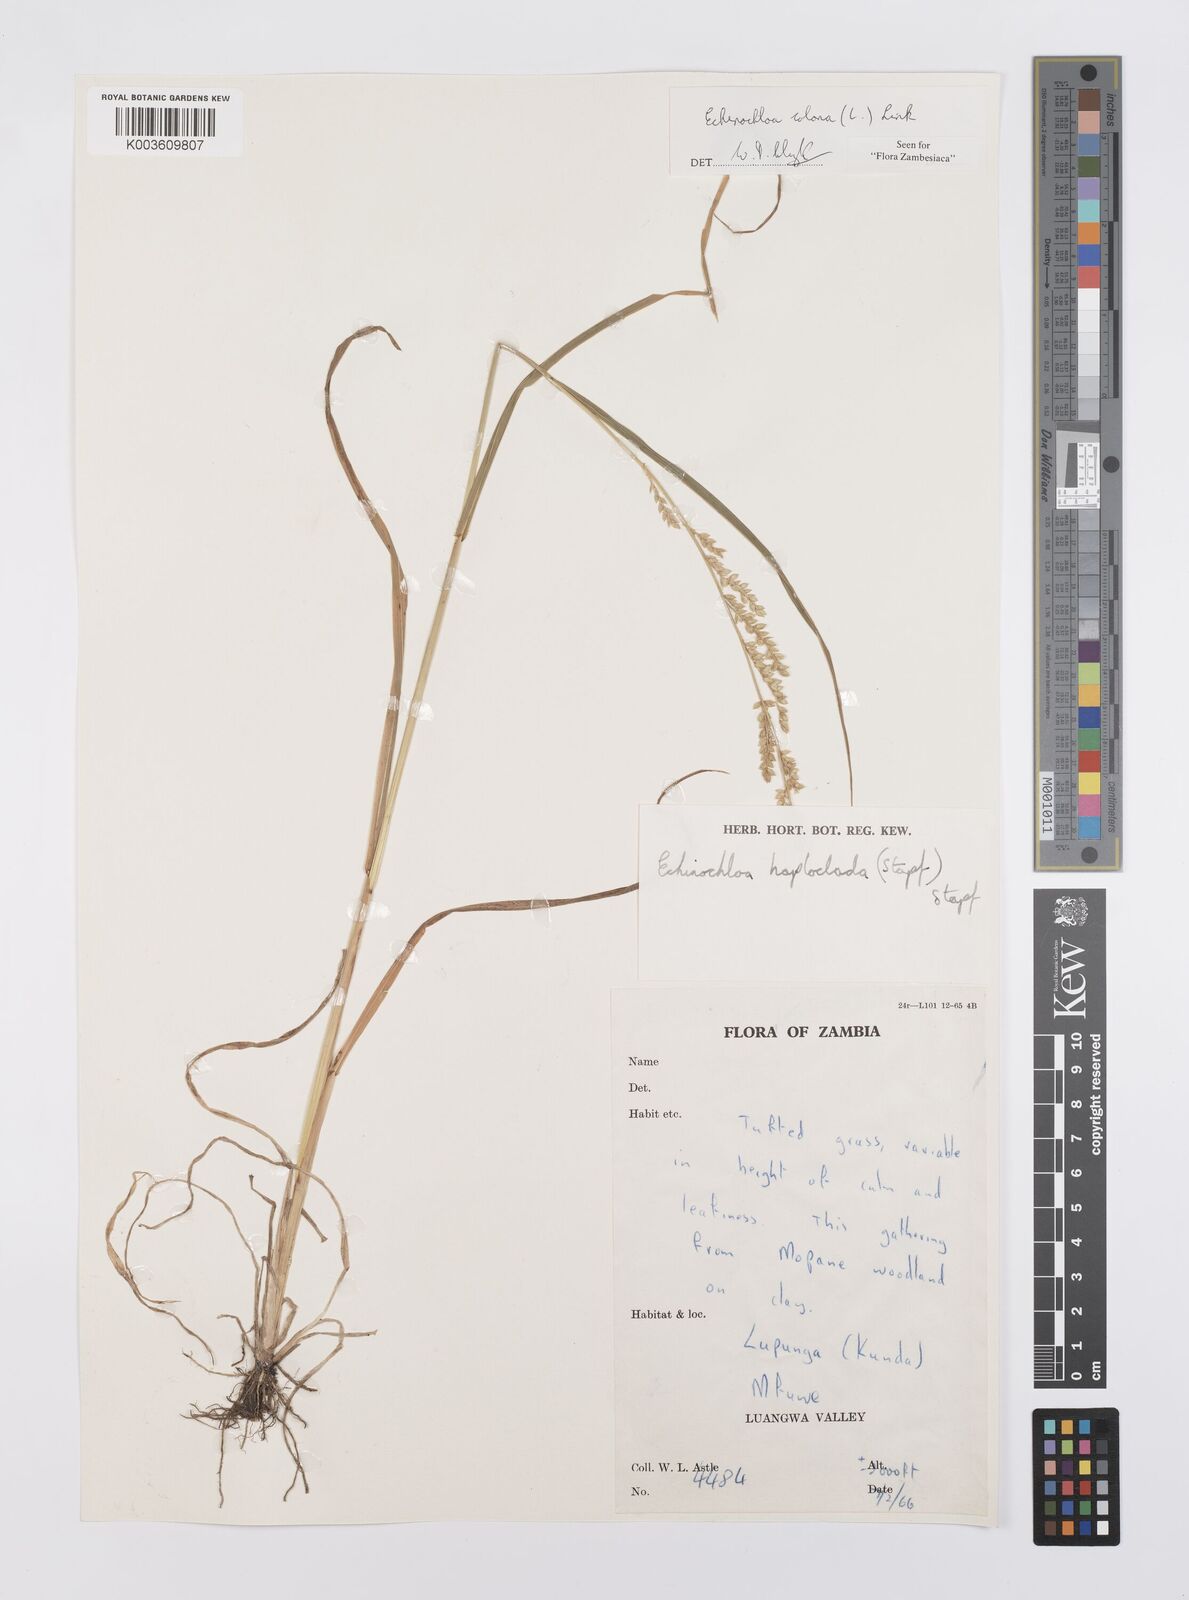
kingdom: Plantae
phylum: Tracheophyta
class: Liliopsida
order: Poales
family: Poaceae
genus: Echinochloa
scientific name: Echinochloa colonum
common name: Jungle rice
